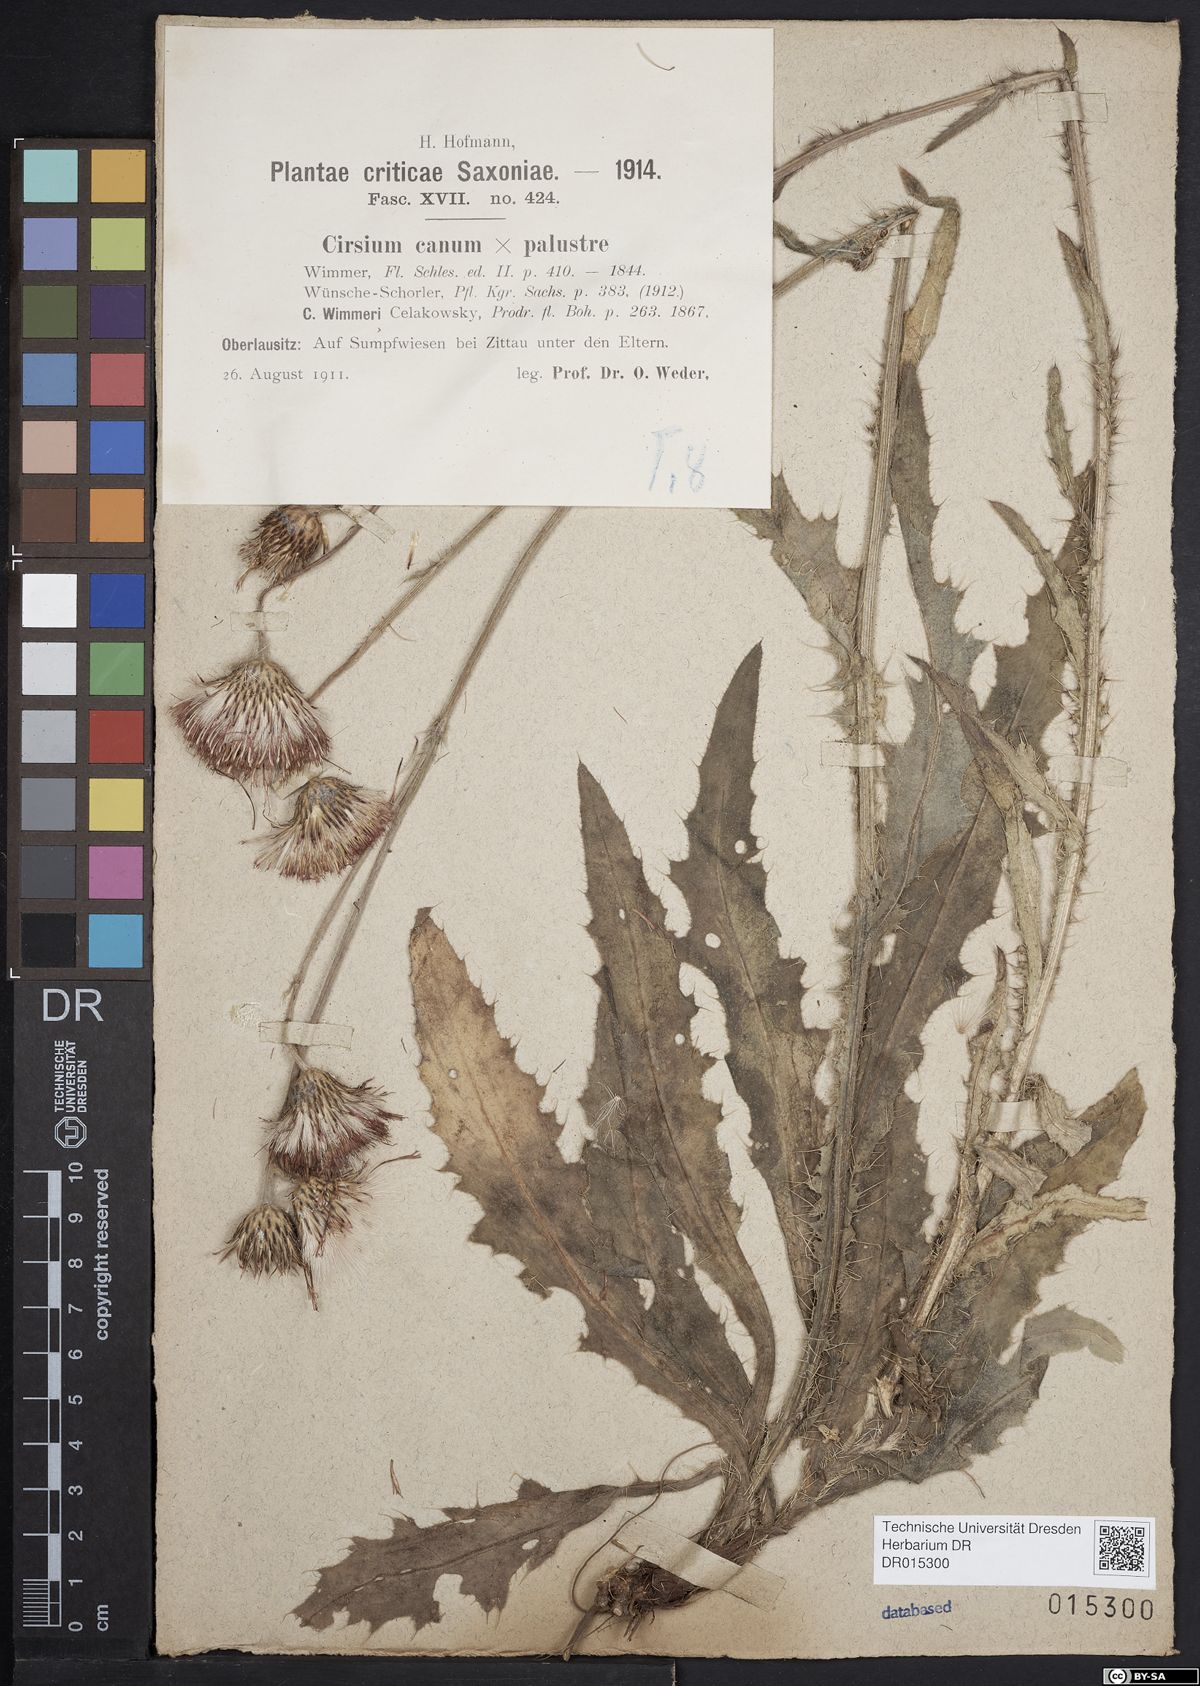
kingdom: Plantae
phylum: Tracheophyta
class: Magnoliopsida
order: Asterales
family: Asteraceae
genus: Cirsium
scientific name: Cirsium silesiacum
